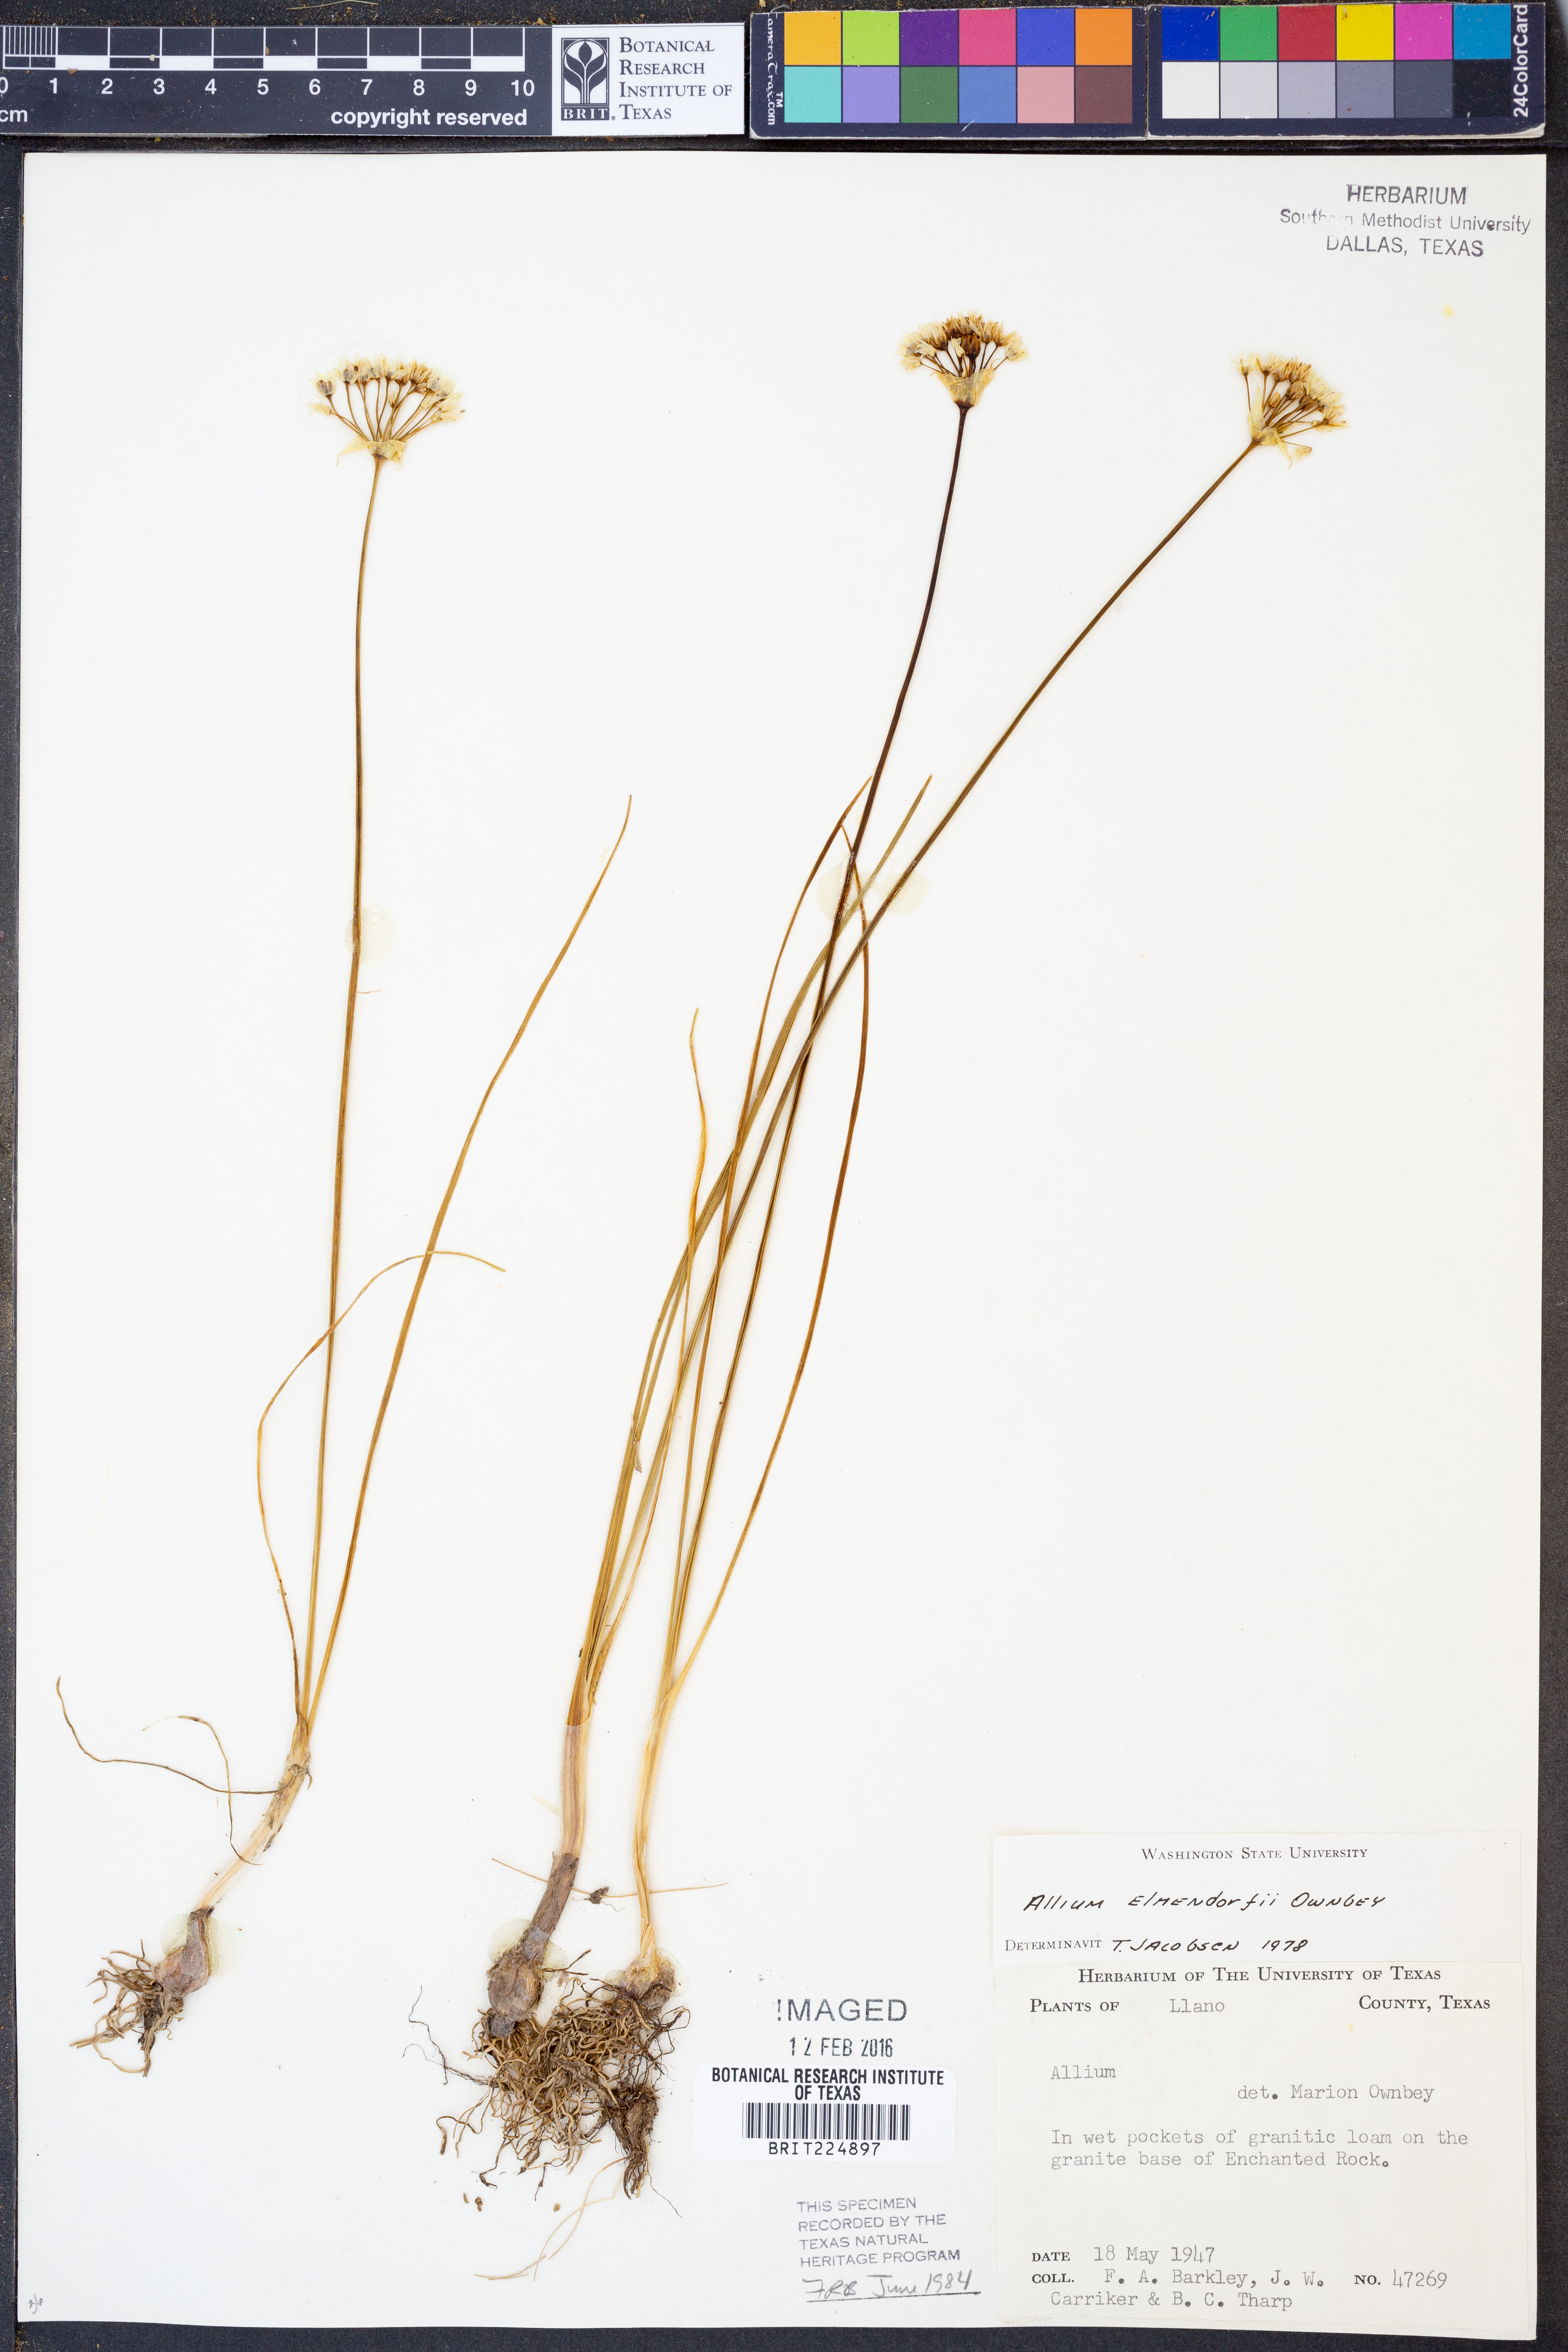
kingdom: Plantae
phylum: Tracheophyta
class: Liliopsida
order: Asparagales
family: Amaryllidaceae
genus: Allium
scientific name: Allium elmendorfii
